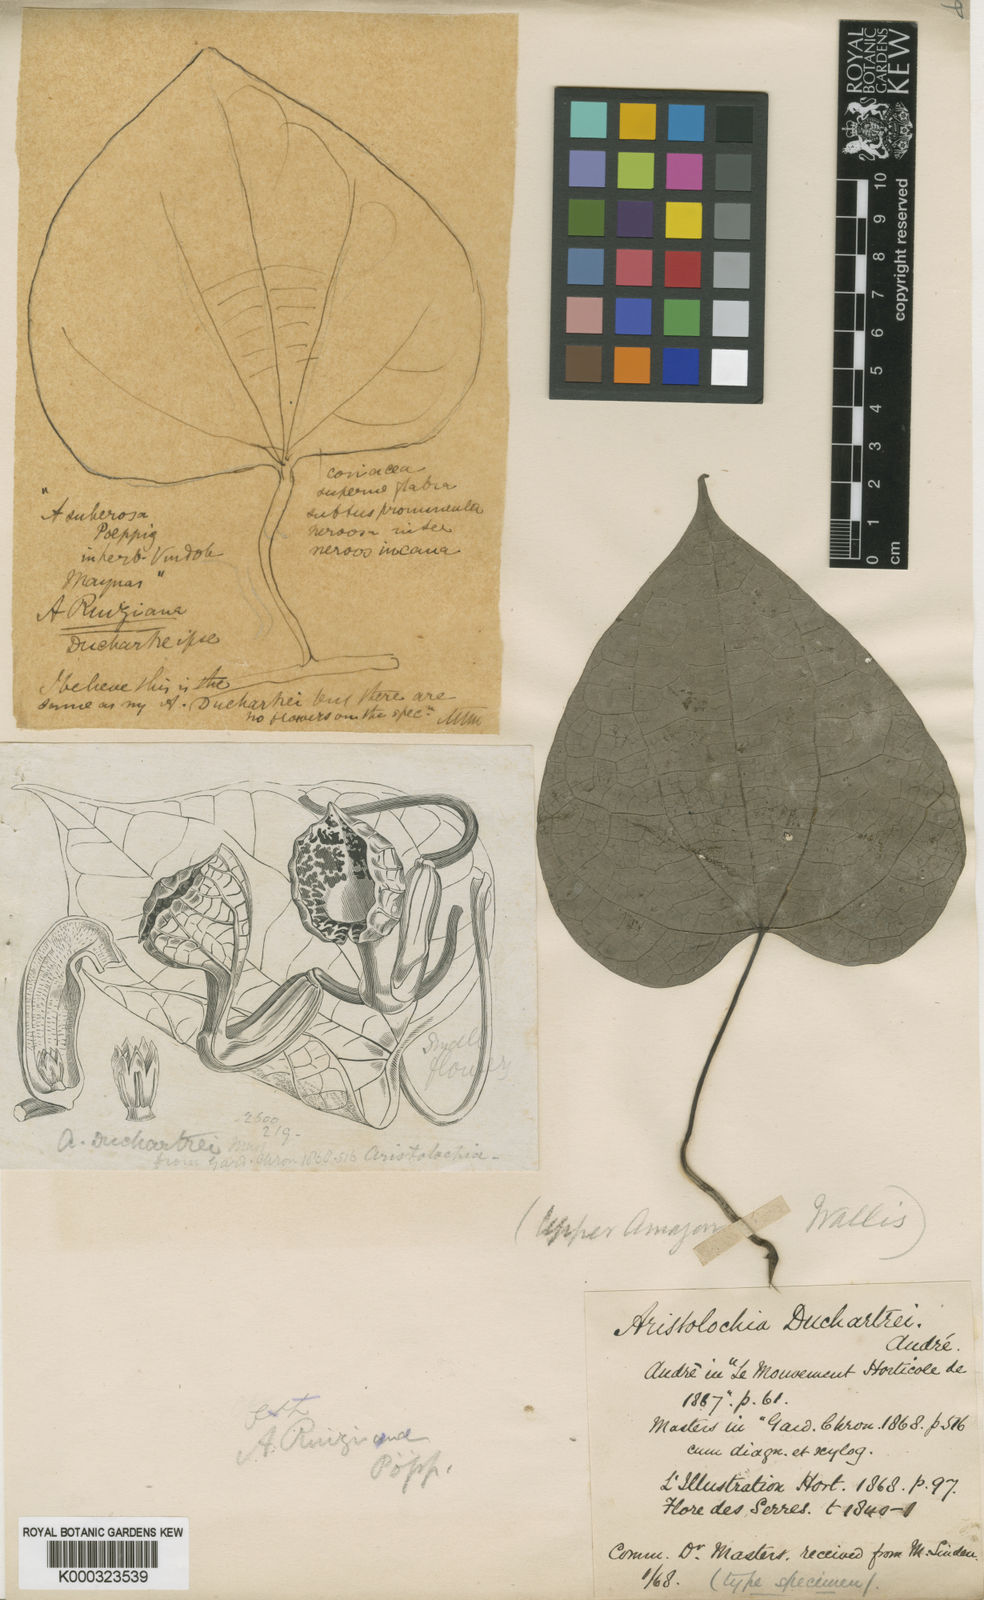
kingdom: Plantae
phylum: Tracheophyta
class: Magnoliopsida
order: Piperales
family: Aristolochiaceae
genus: Aristolochia
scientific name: Aristolochia ruiziana
